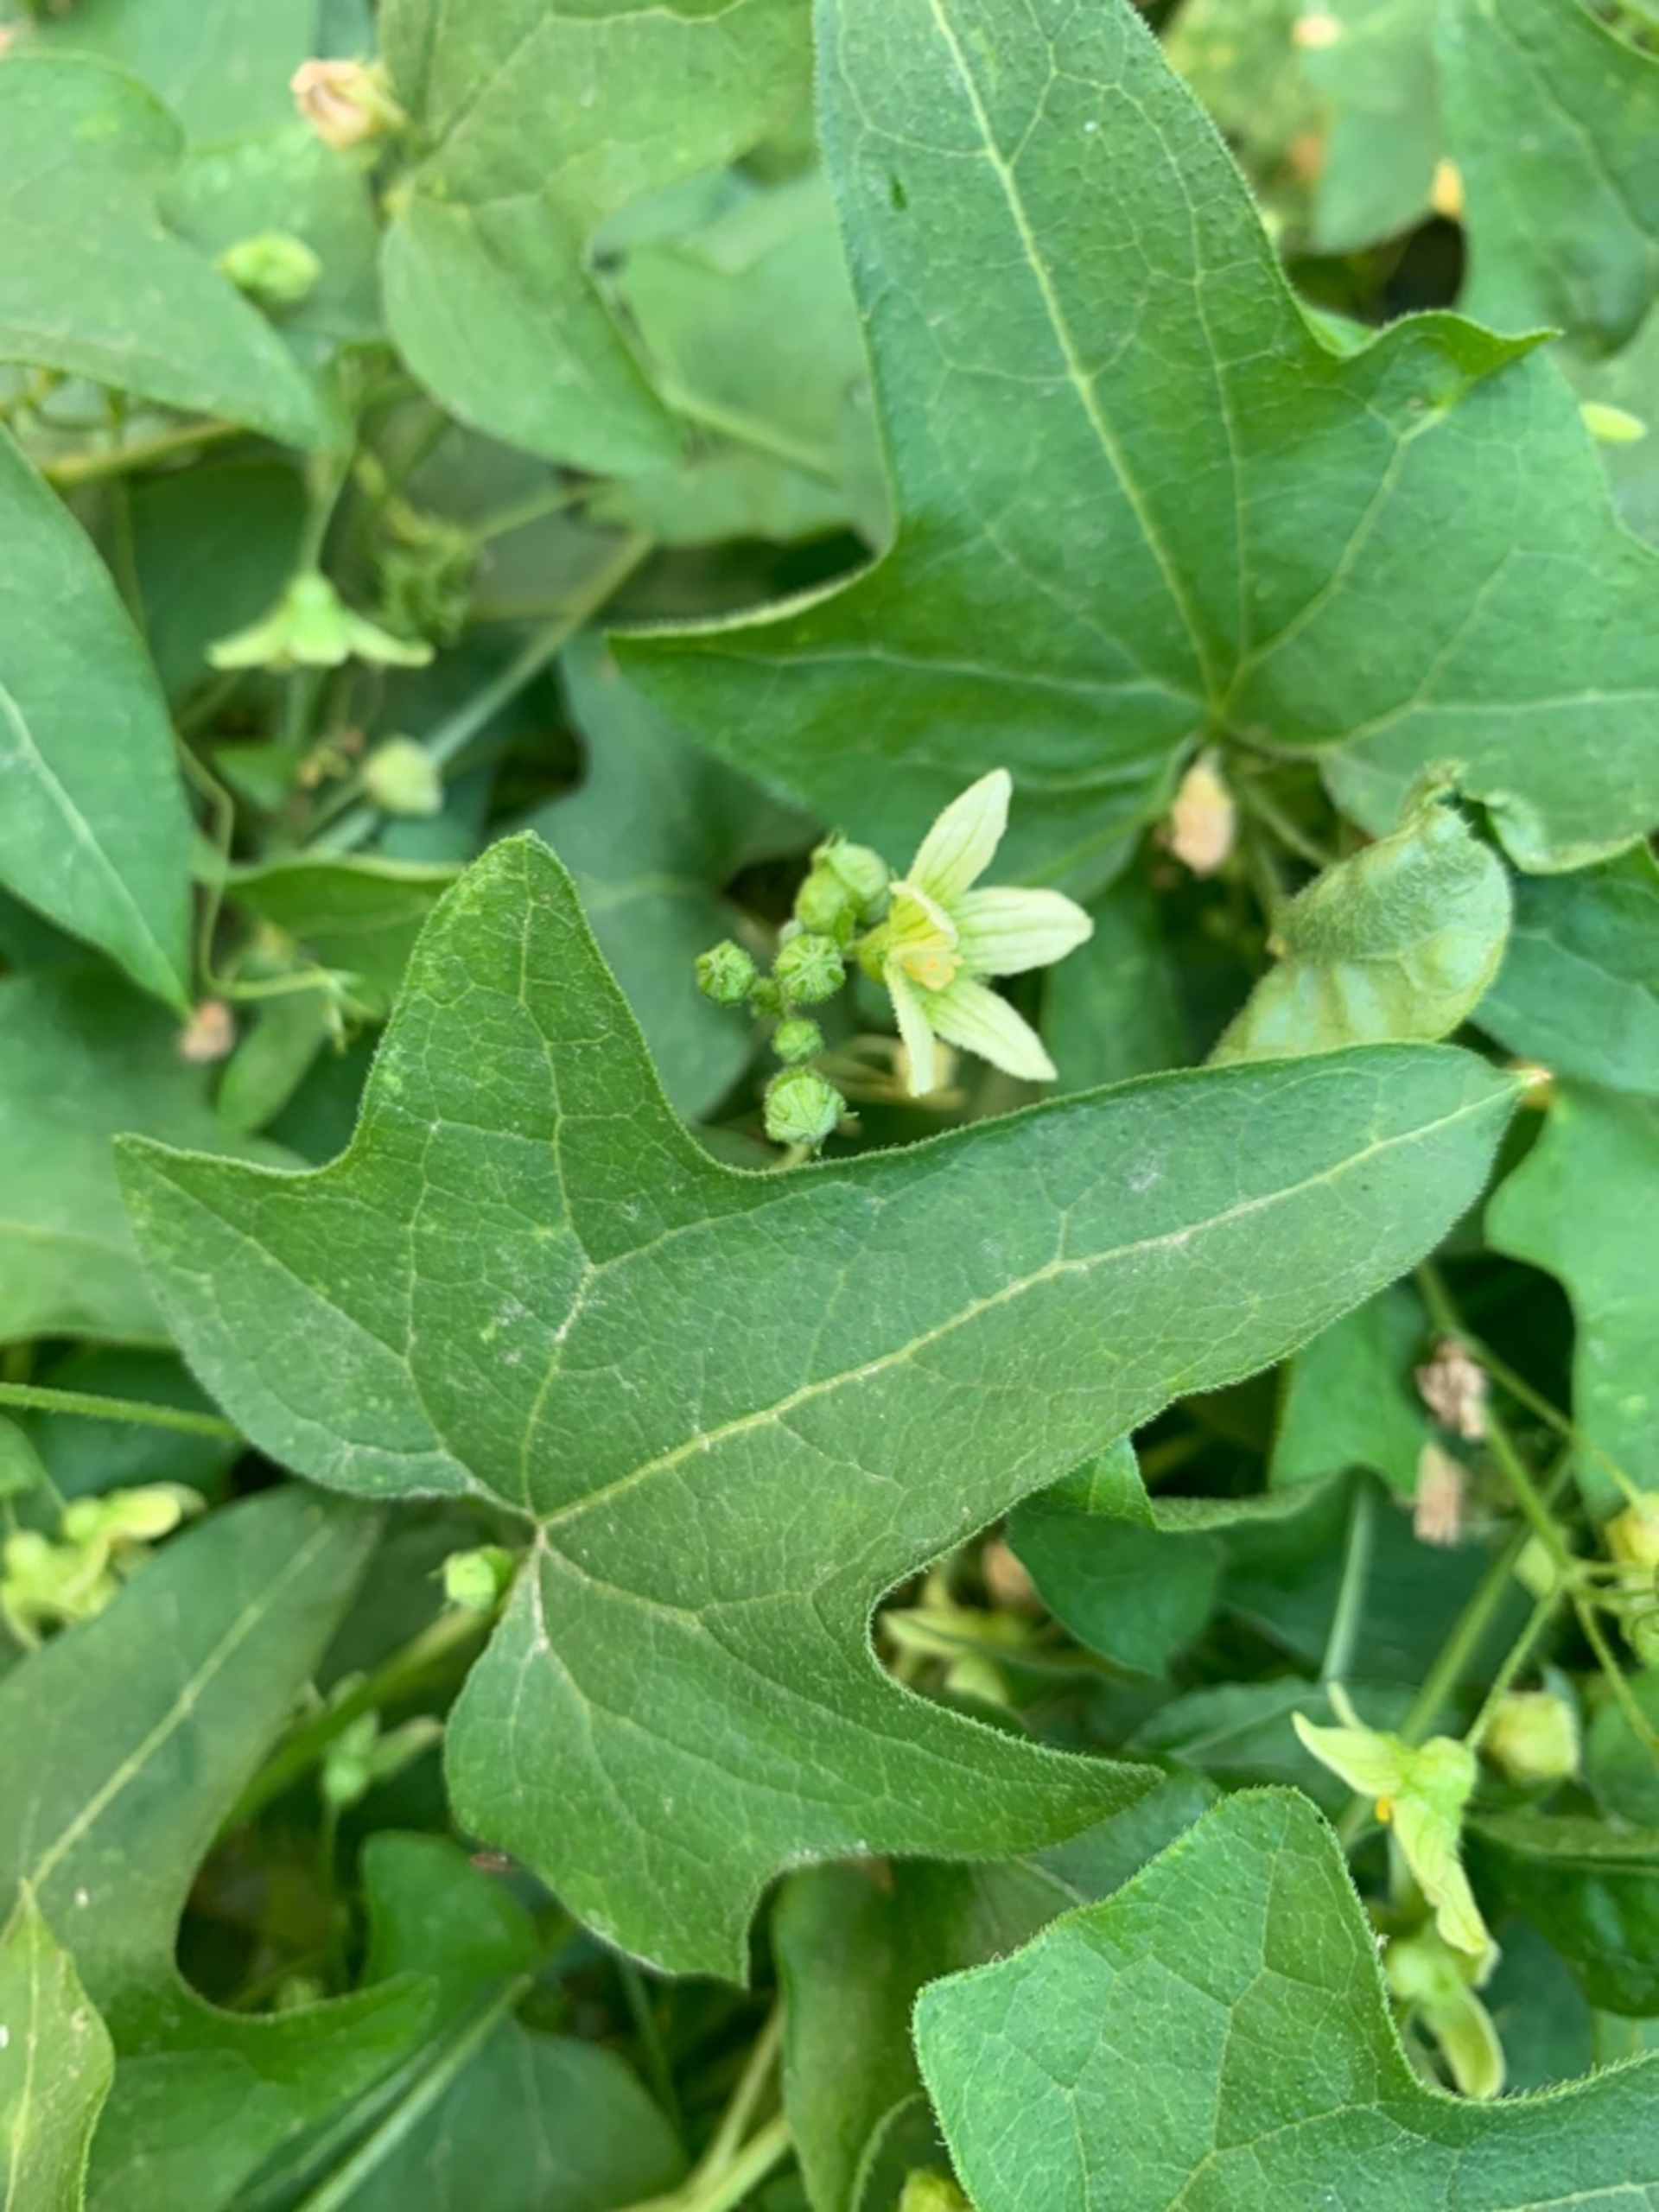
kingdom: Plantae
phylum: Tracheophyta
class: Magnoliopsida
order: Cucurbitales
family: Cucurbitaceae
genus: Bryonia
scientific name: Bryonia dioica
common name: Tvebo galdebær
